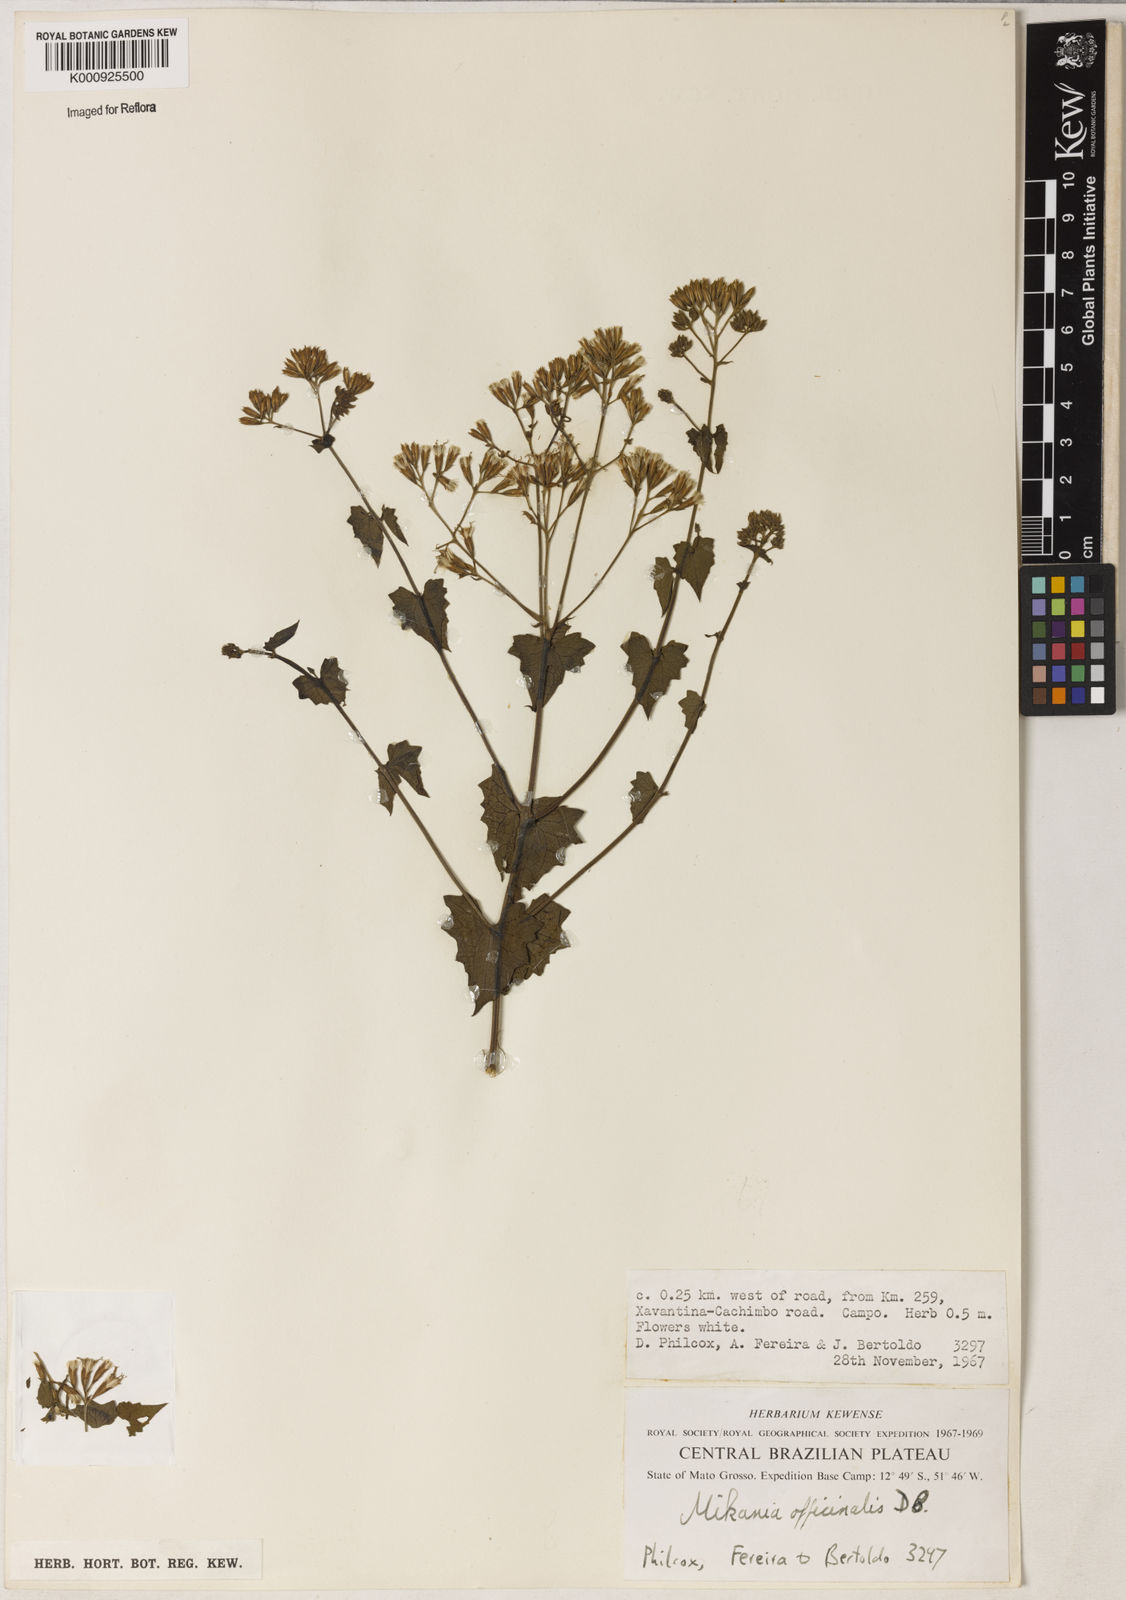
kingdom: Plantae
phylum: Tracheophyta
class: Magnoliopsida
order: Asterales
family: Asteraceae
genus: Mikania
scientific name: Mikania officinalis
